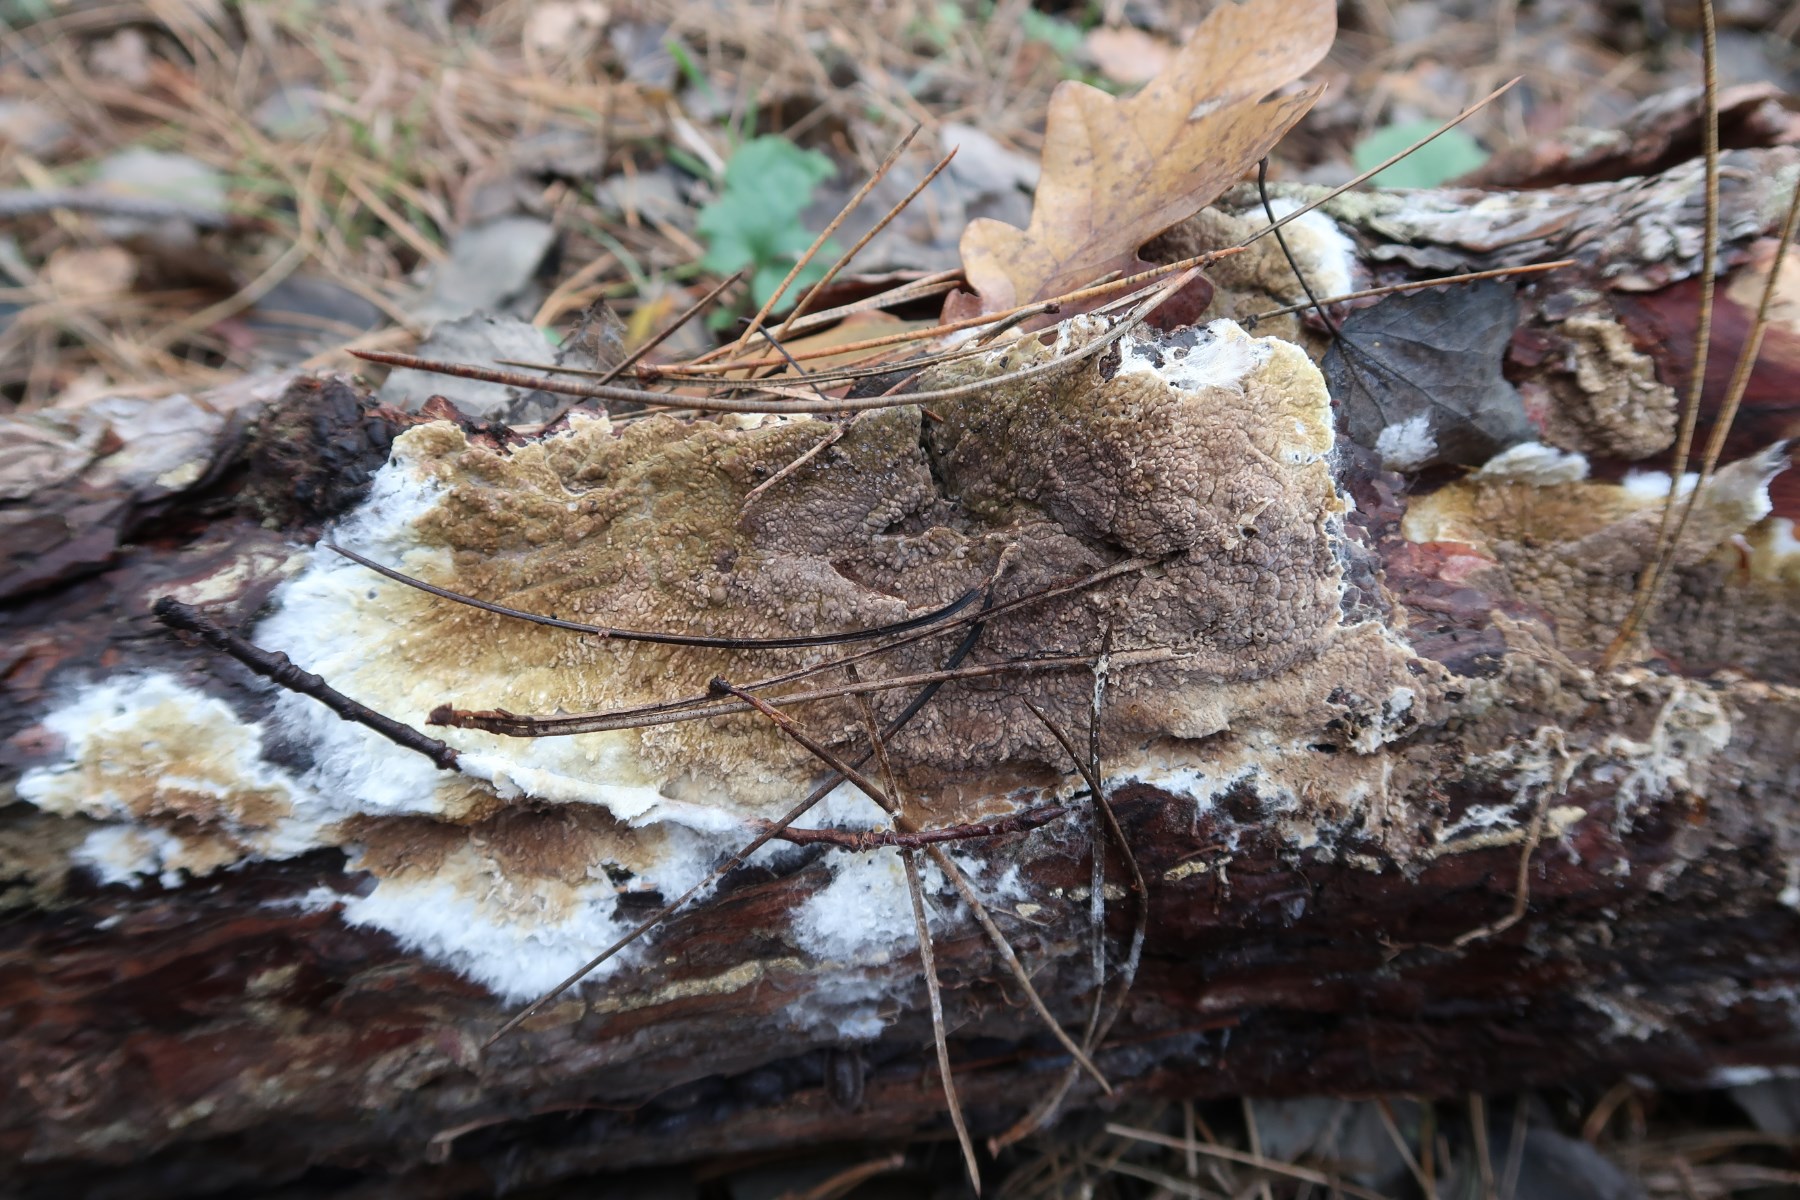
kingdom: Fungi
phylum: Basidiomycota
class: Agaricomycetes
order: Boletales
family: Coniophoraceae
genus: Coniophora
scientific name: Coniophora puteana
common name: gul tømmersvamp
